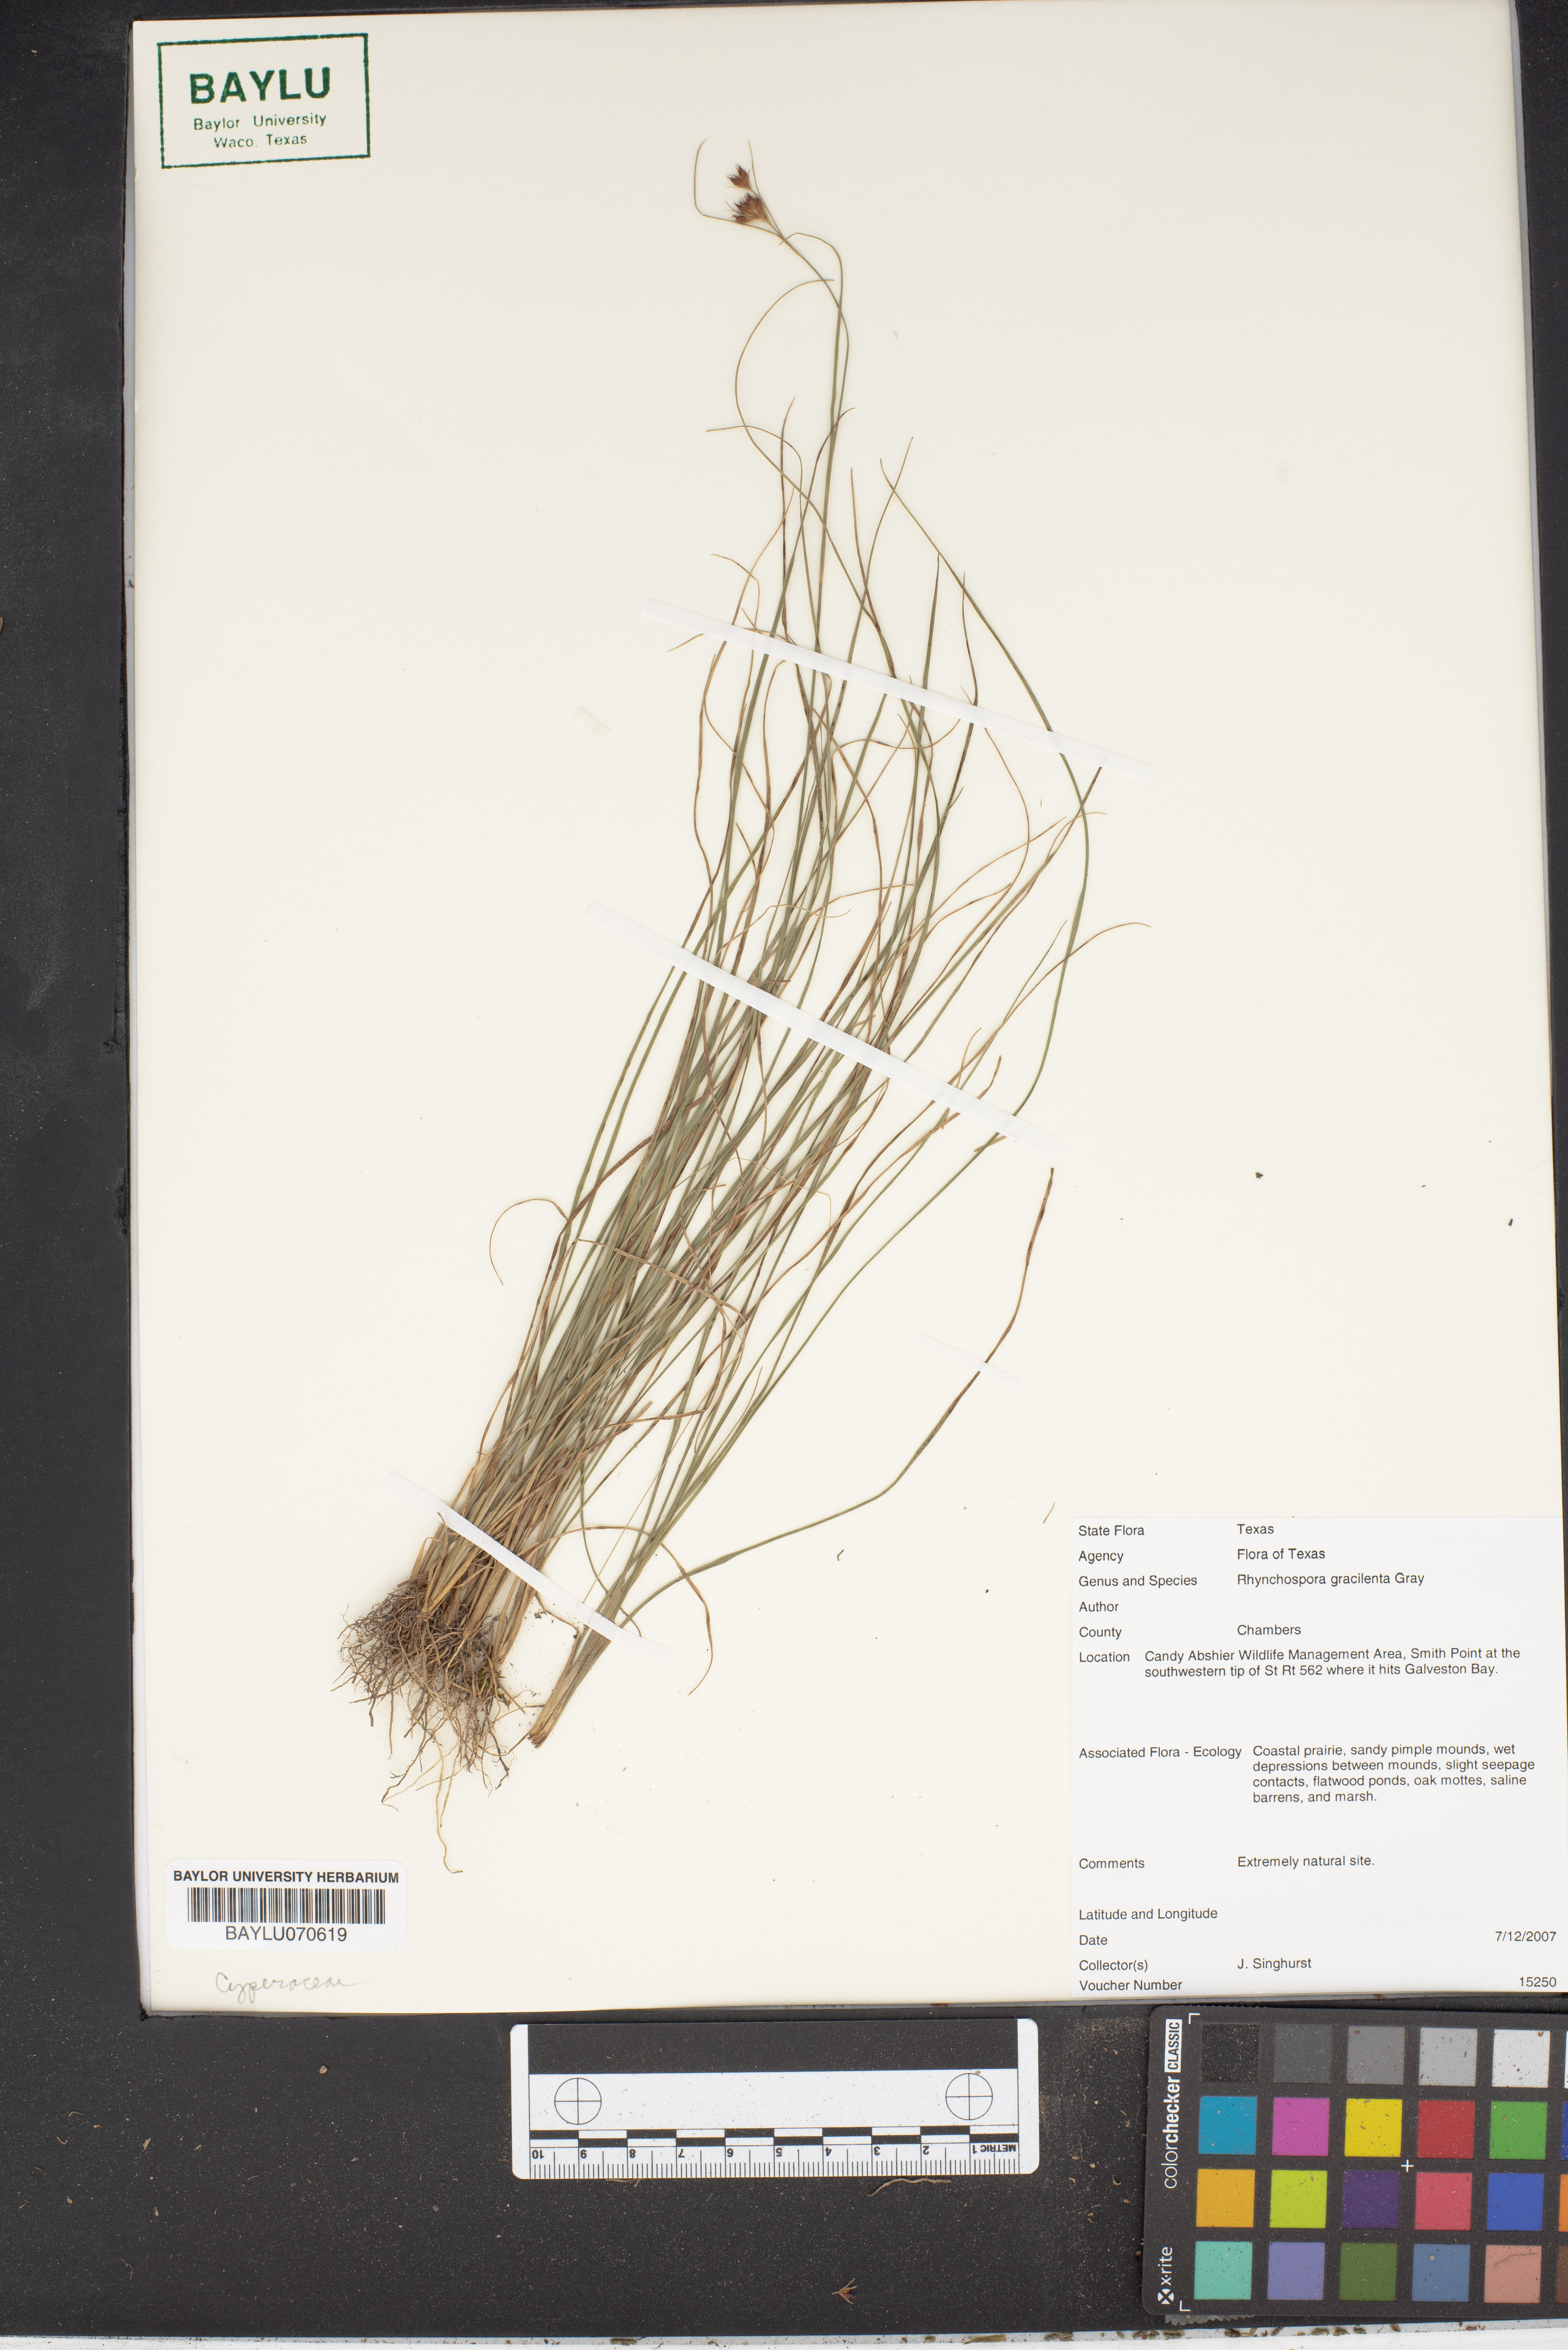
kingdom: Plantae
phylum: Tracheophyta
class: Liliopsida
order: Poales
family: Cyperaceae
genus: Rhynchospora
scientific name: Rhynchospora gracilenta
